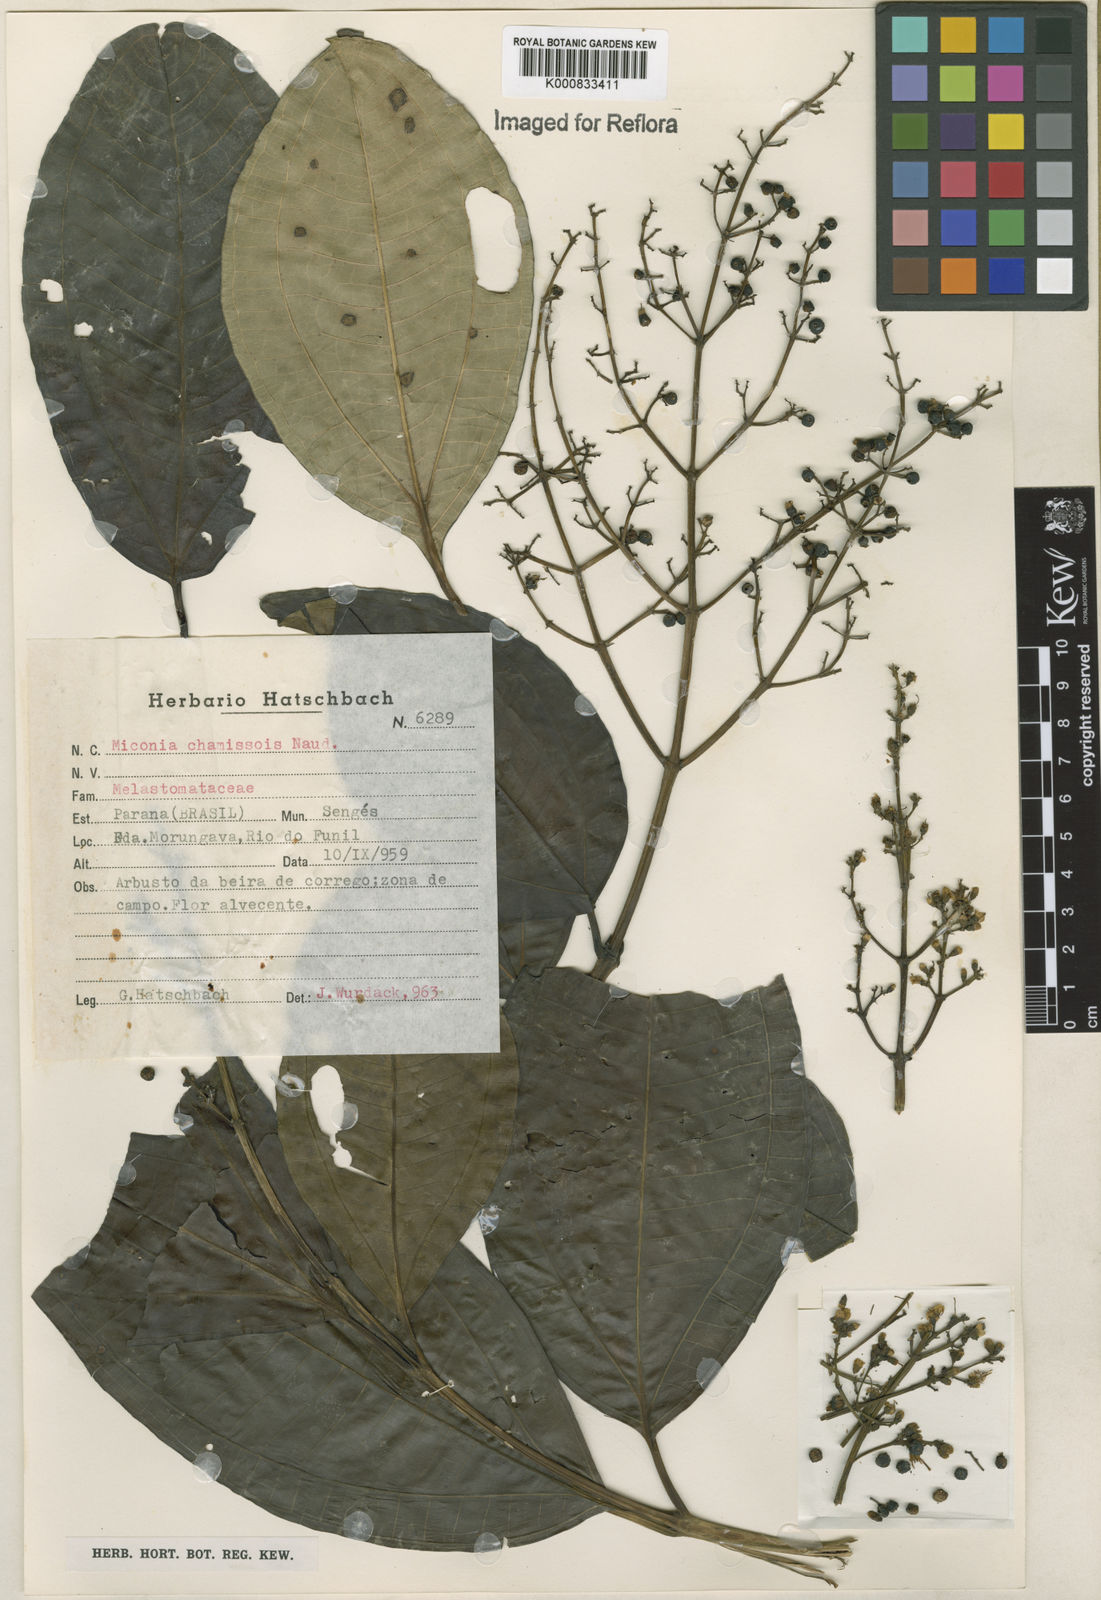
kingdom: Plantae
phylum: Tracheophyta
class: Magnoliopsida
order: Myrtales
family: Melastomataceae
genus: Miconia
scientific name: Miconia chamissois
